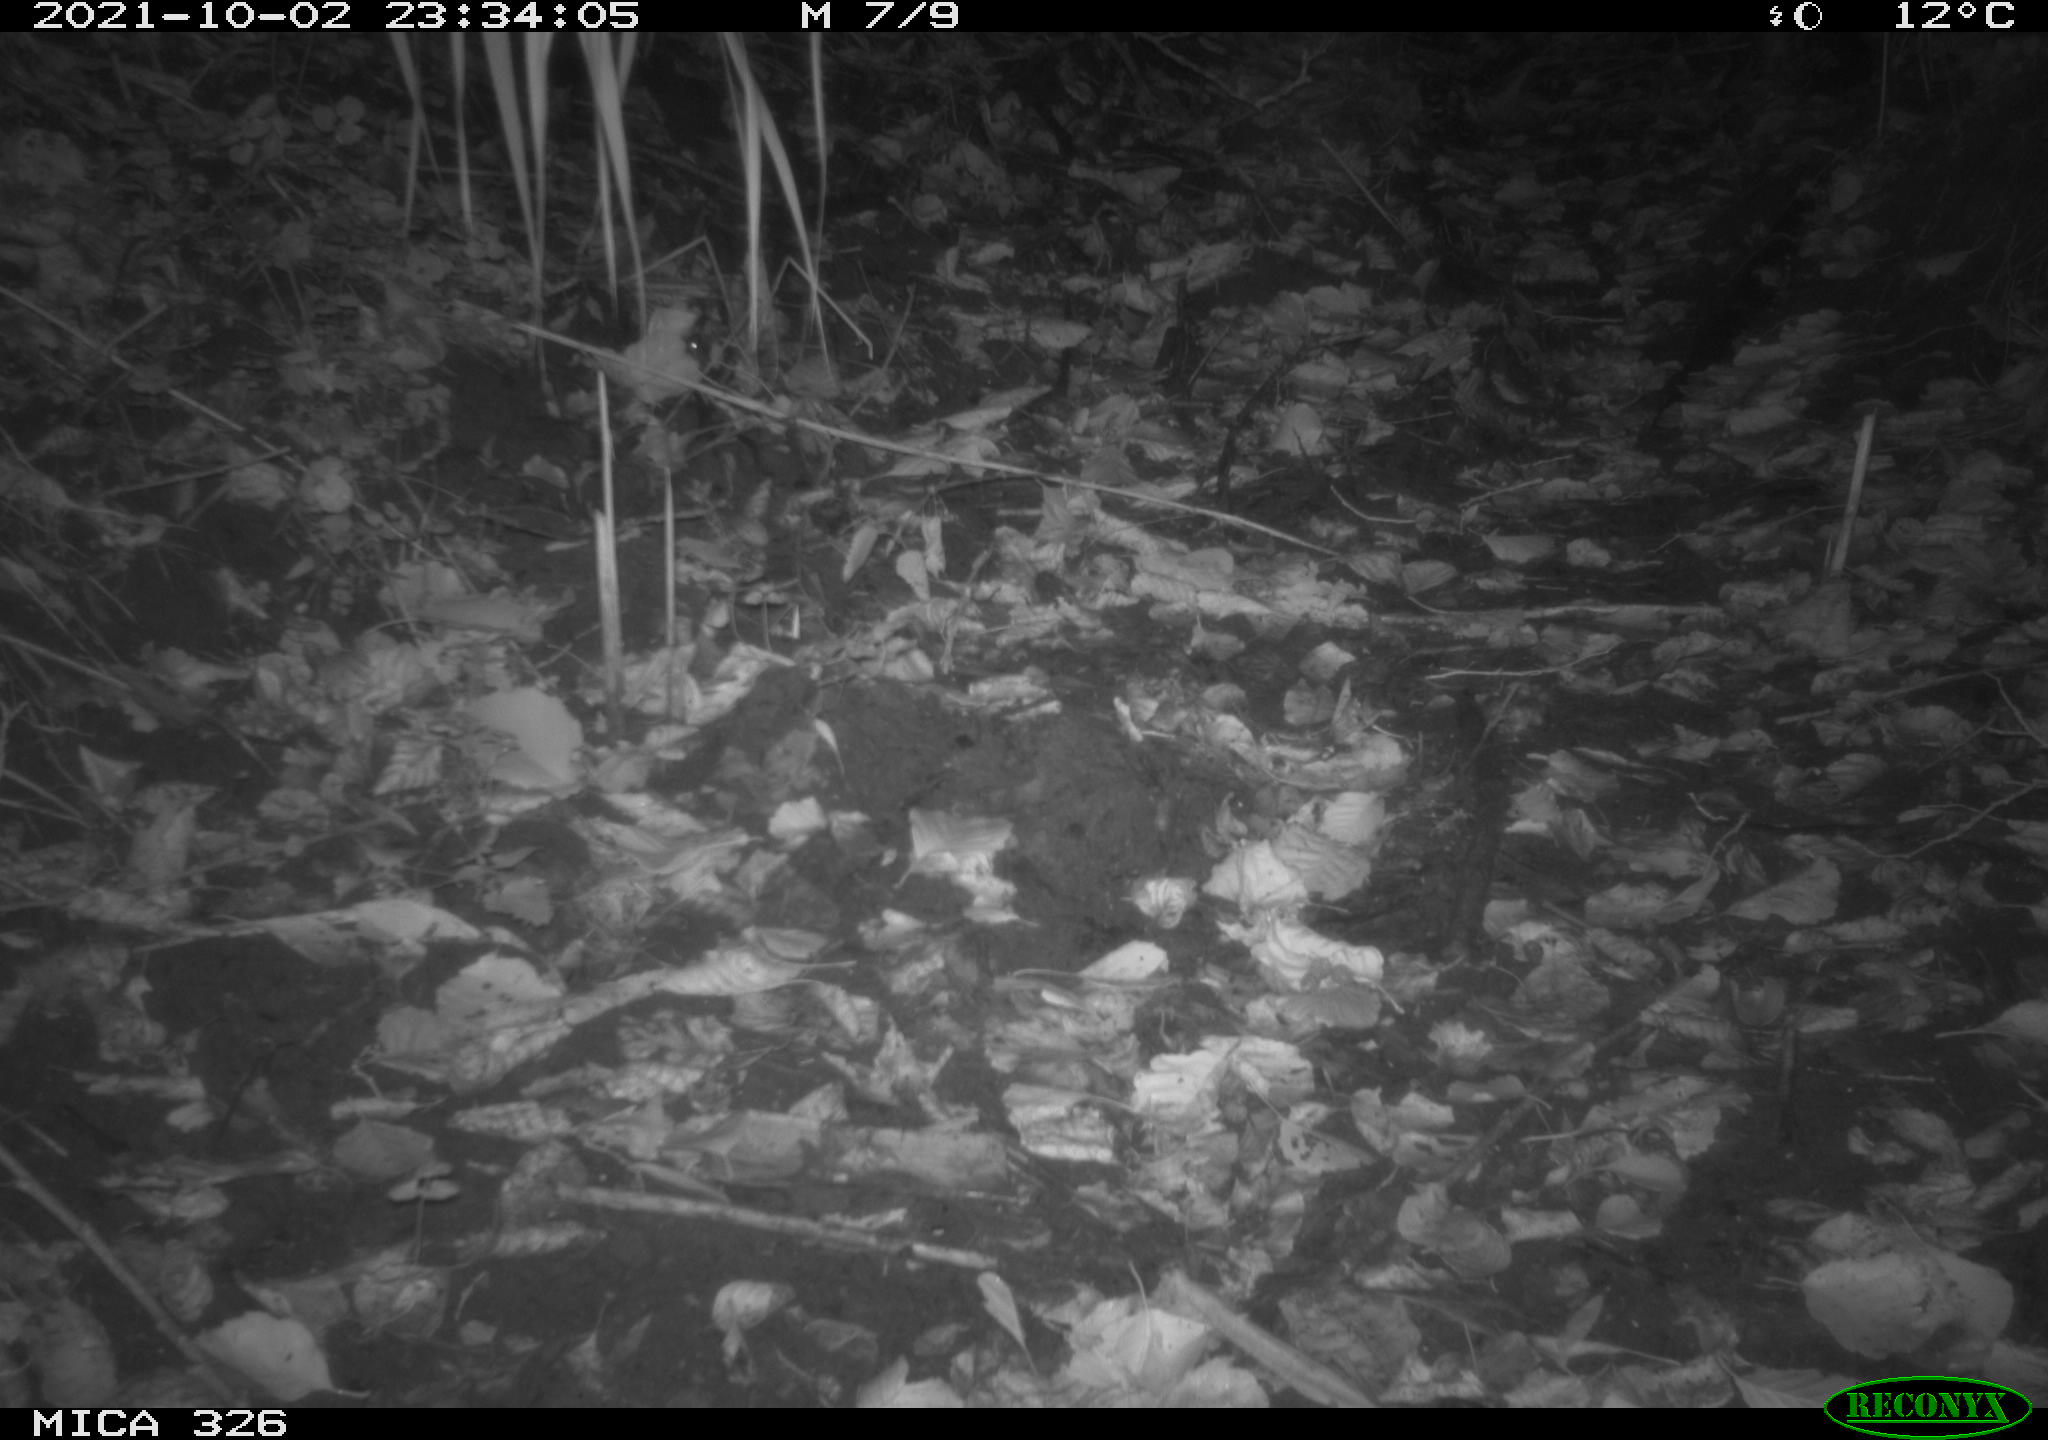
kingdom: Animalia
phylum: Chordata
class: Mammalia
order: Rodentia
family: Myocastoridae
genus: Myocastor
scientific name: Myocastor coypus
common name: Coypu
